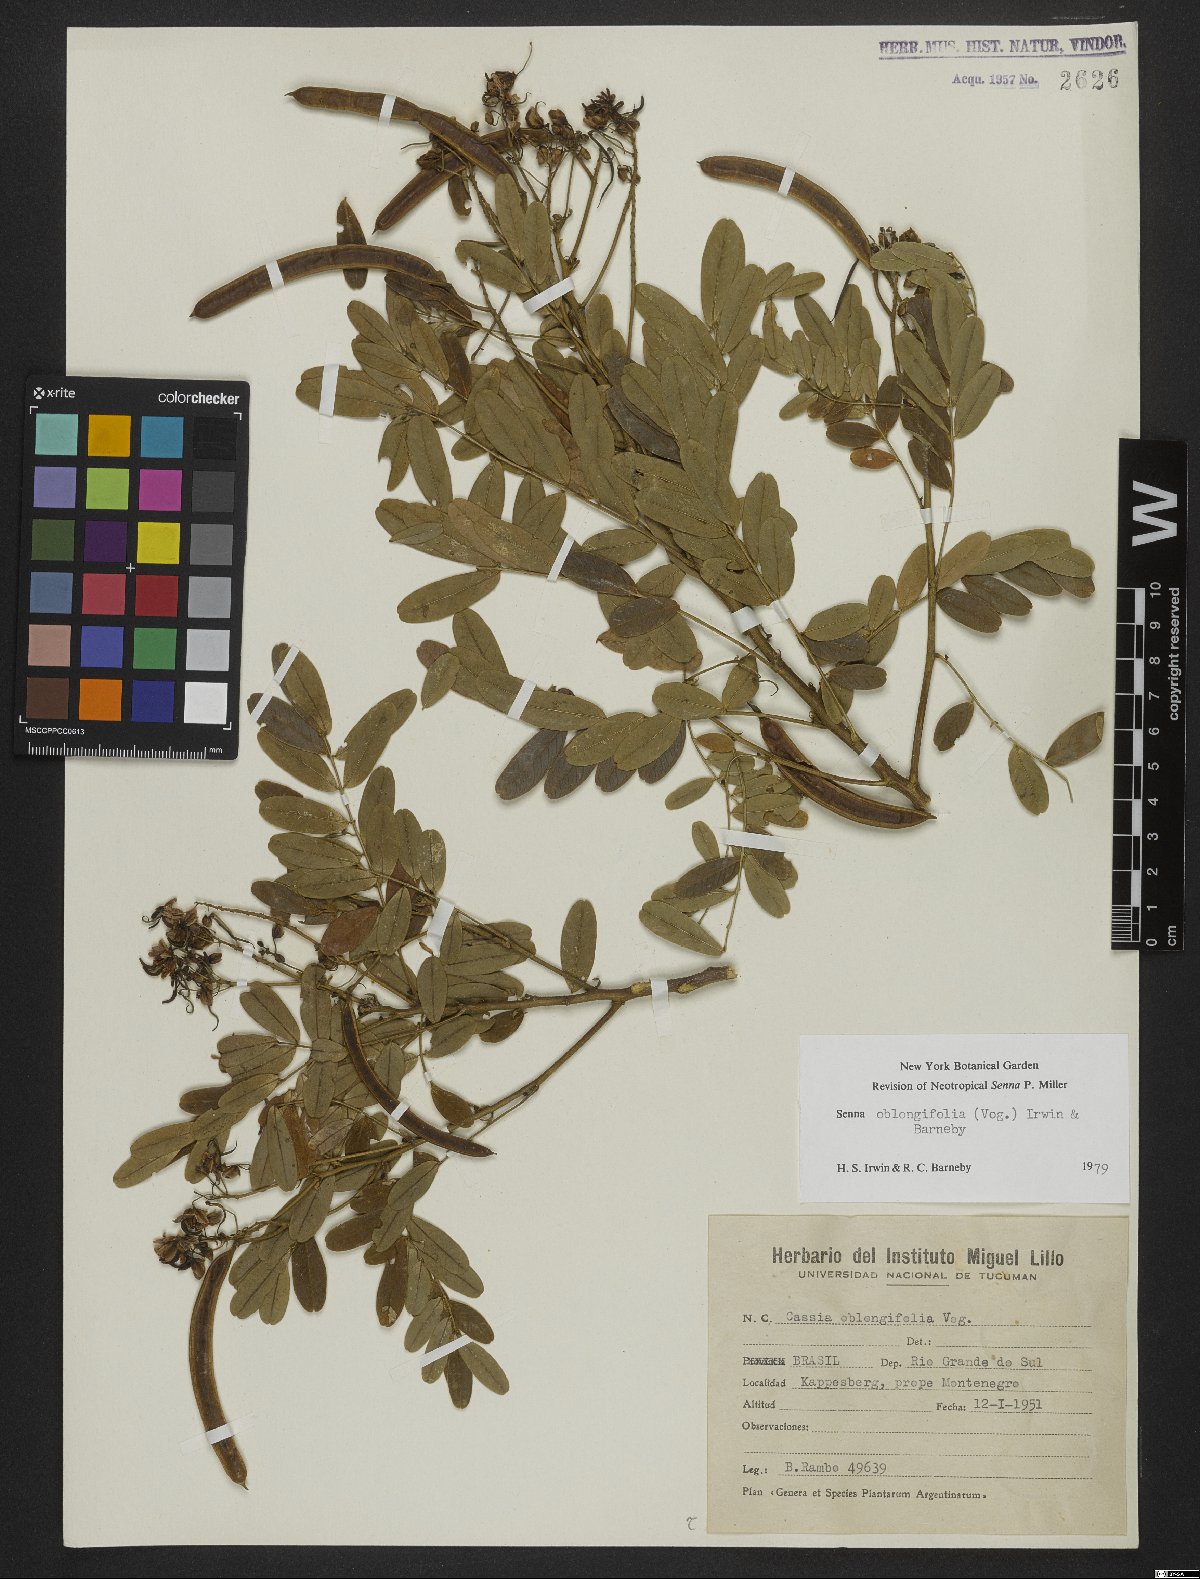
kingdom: Plantae
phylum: Tracheophyta
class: Magnoliopsida
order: Fabales
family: Fabaceae
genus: Senna
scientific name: Senna oblongifolia
